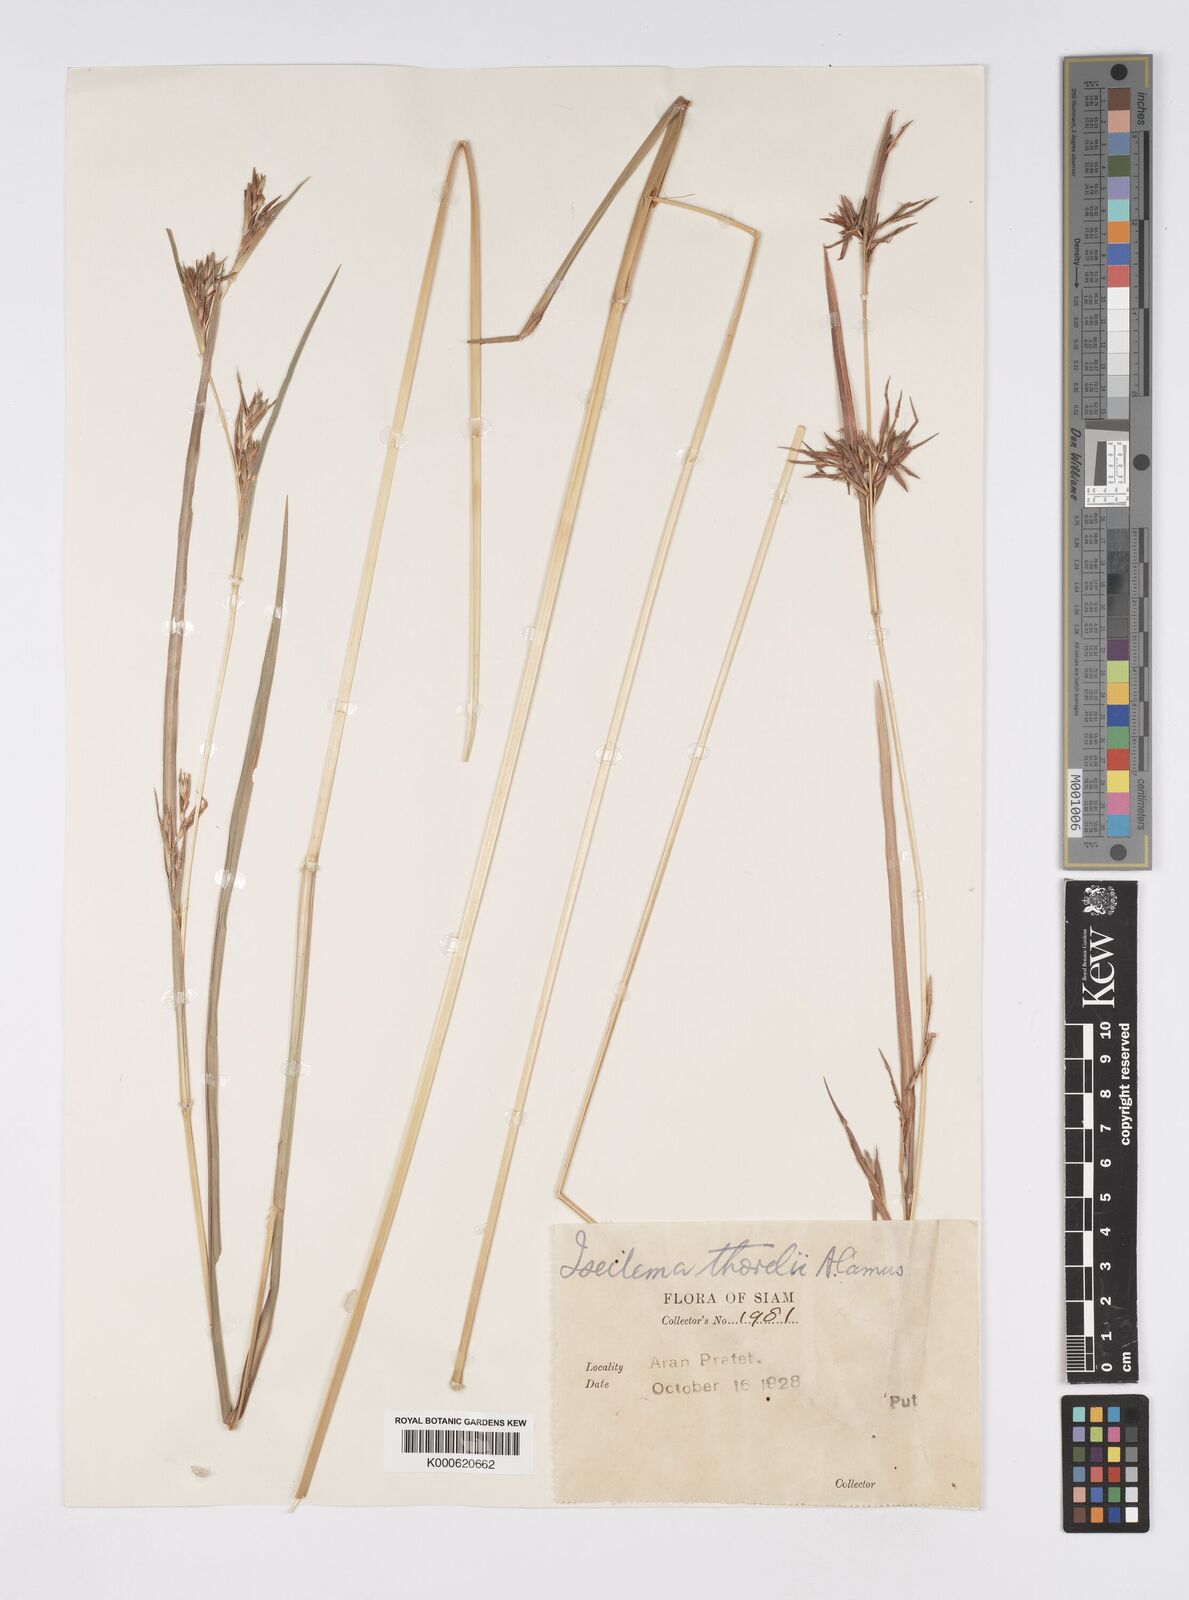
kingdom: Plantae
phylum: Tracheophyta
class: Liliopsida
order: Poales
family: Poaceae
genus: Iseilema
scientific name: Iseilema thorelii
